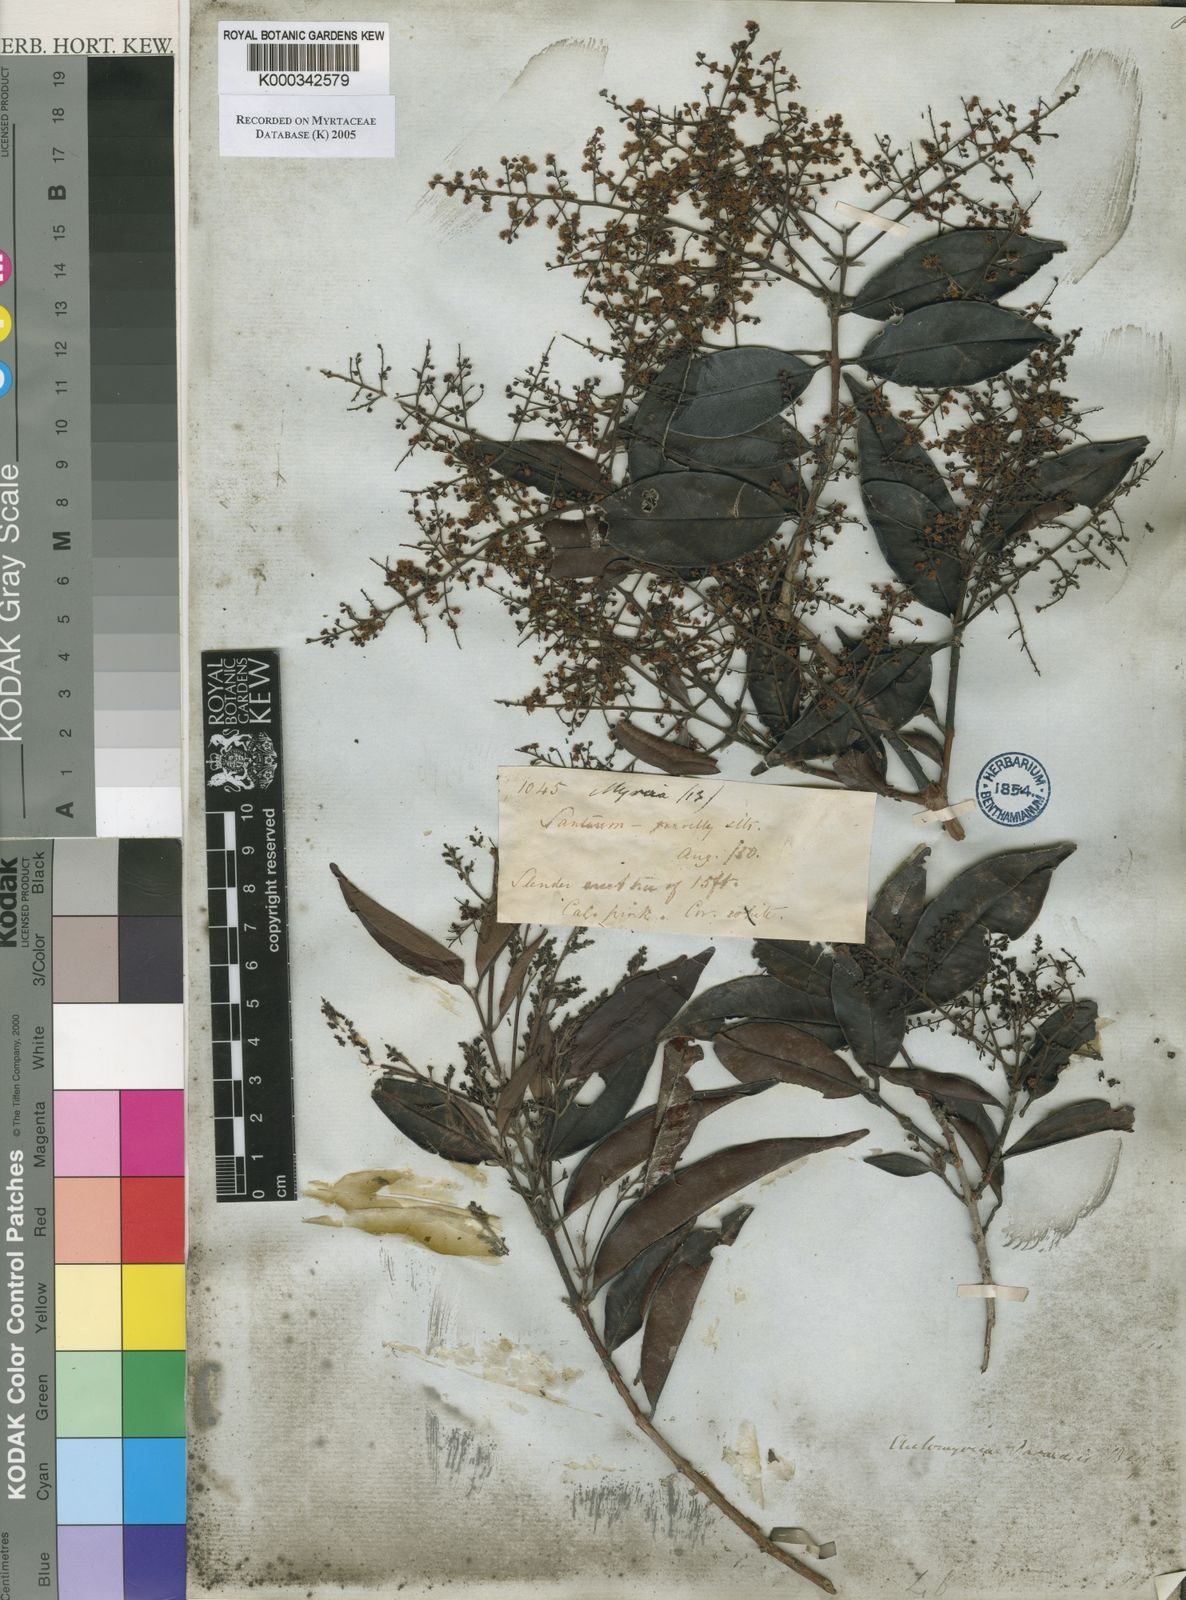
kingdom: Plantae
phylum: Tracheophyta
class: Magnoliopsida
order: Myrtales
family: Myrtaceae
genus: Myrcia
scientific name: Myrcia amazonica
